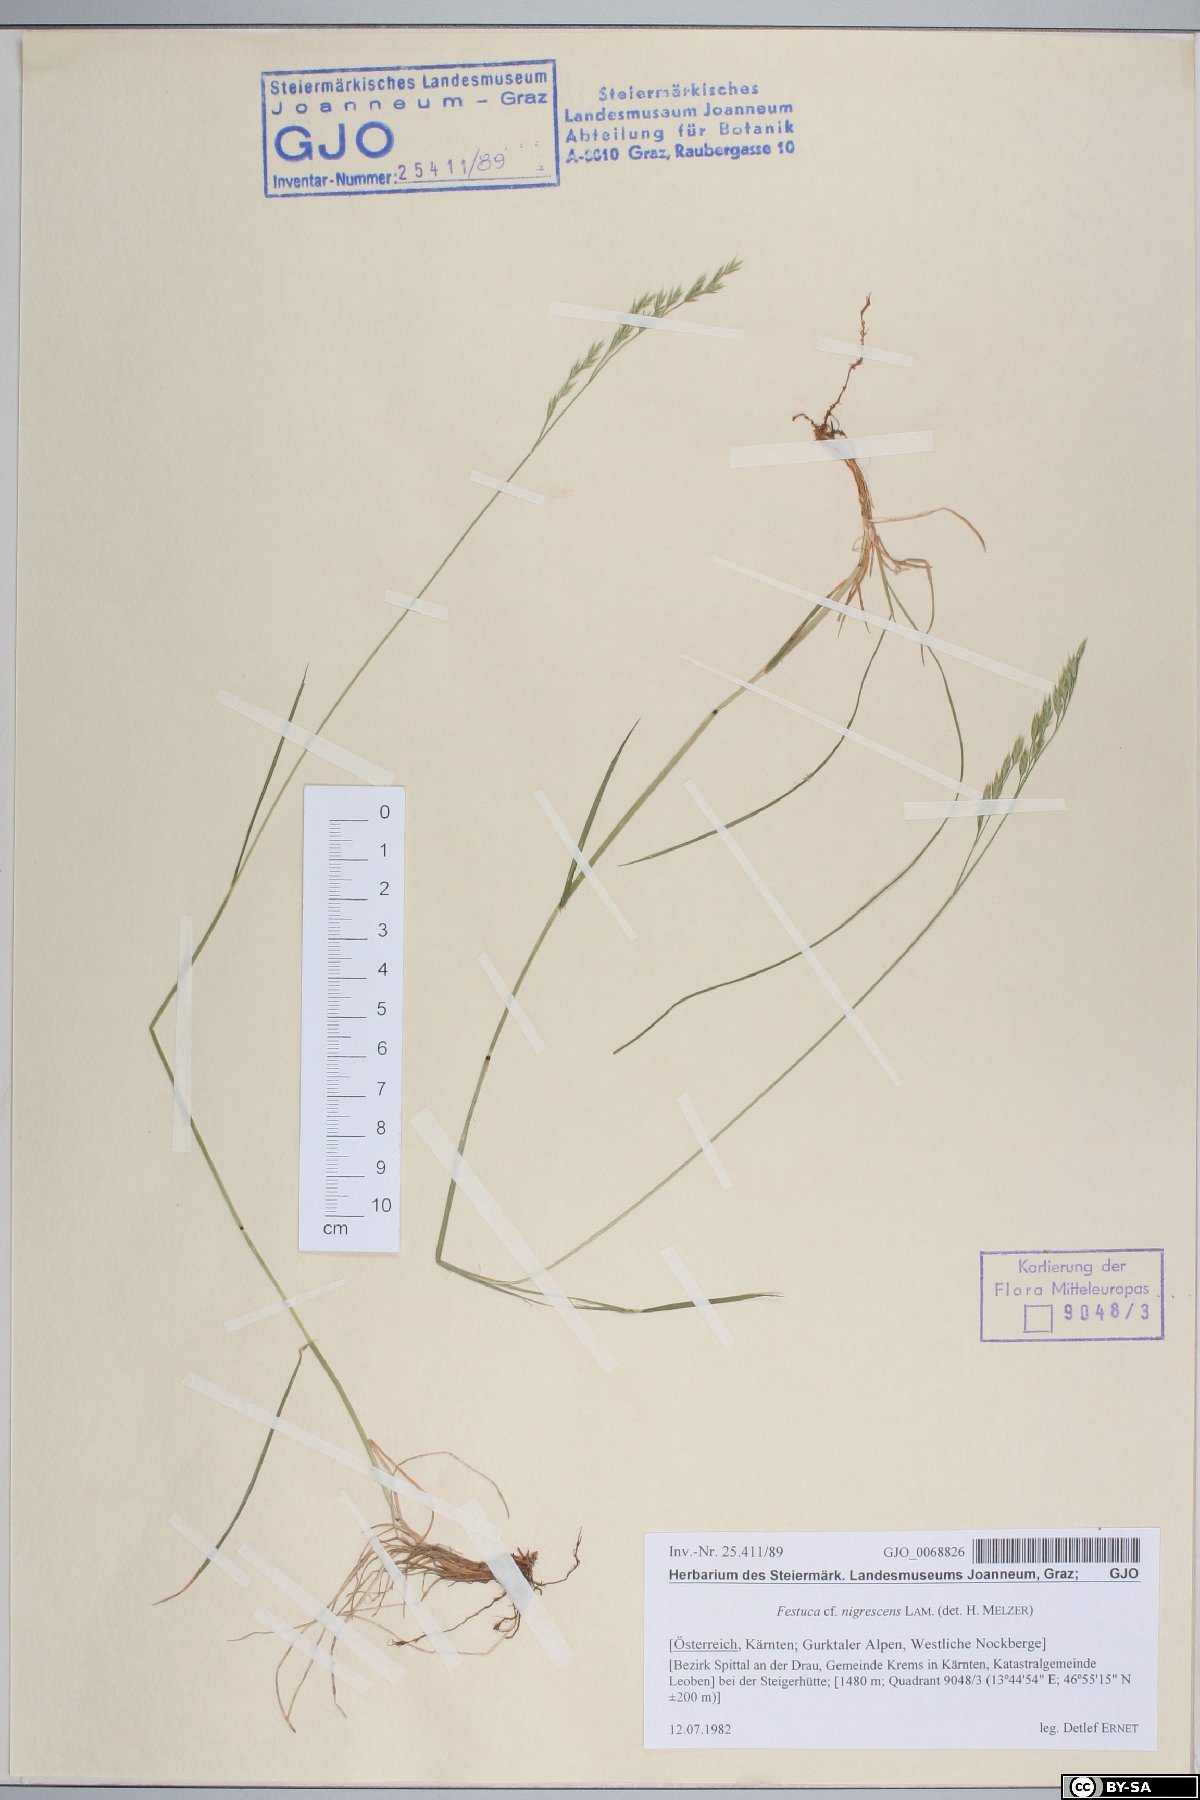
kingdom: Plantae
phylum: Tracheophyta
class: Liliopsida
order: Poales
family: Poaceae
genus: Festuca
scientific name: Festuca nigrescens
